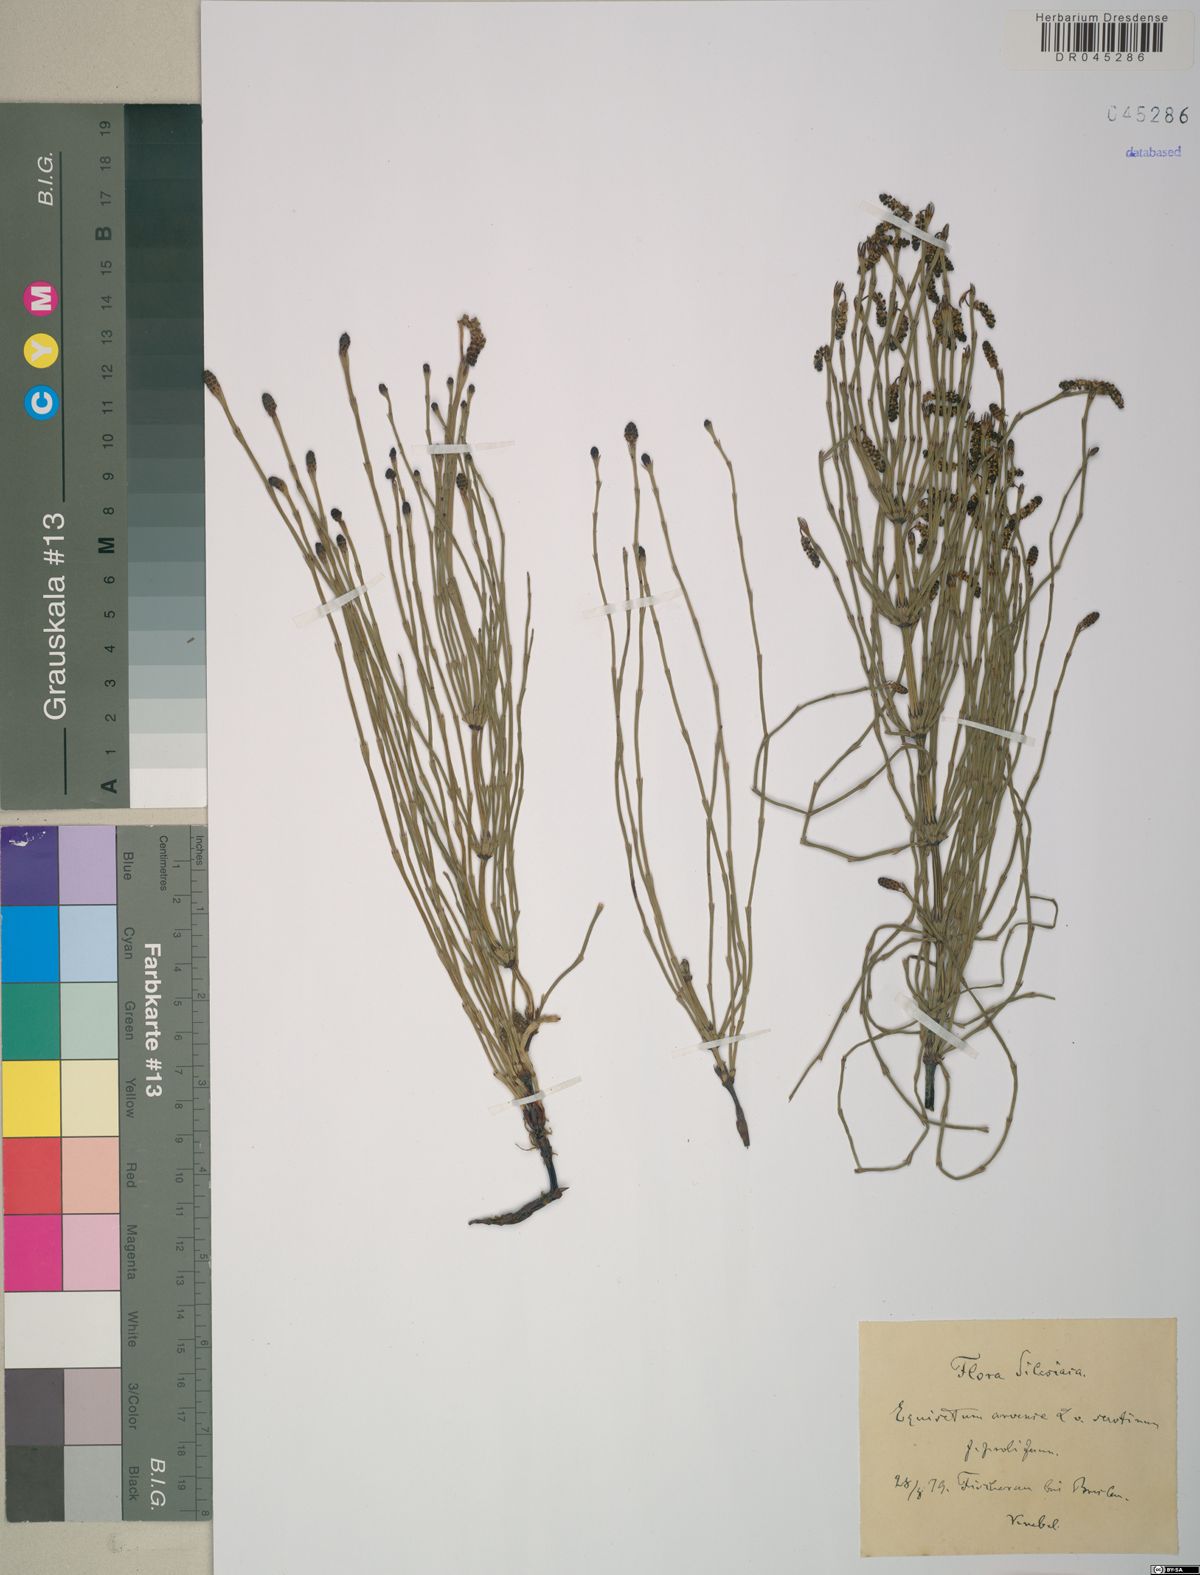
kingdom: Plantae
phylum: Tracheophyta
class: Polypodiopsida
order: Equisetales
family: Equisetaceae
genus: Equisetum
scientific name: Equisetum arvense
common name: Field horsetail
